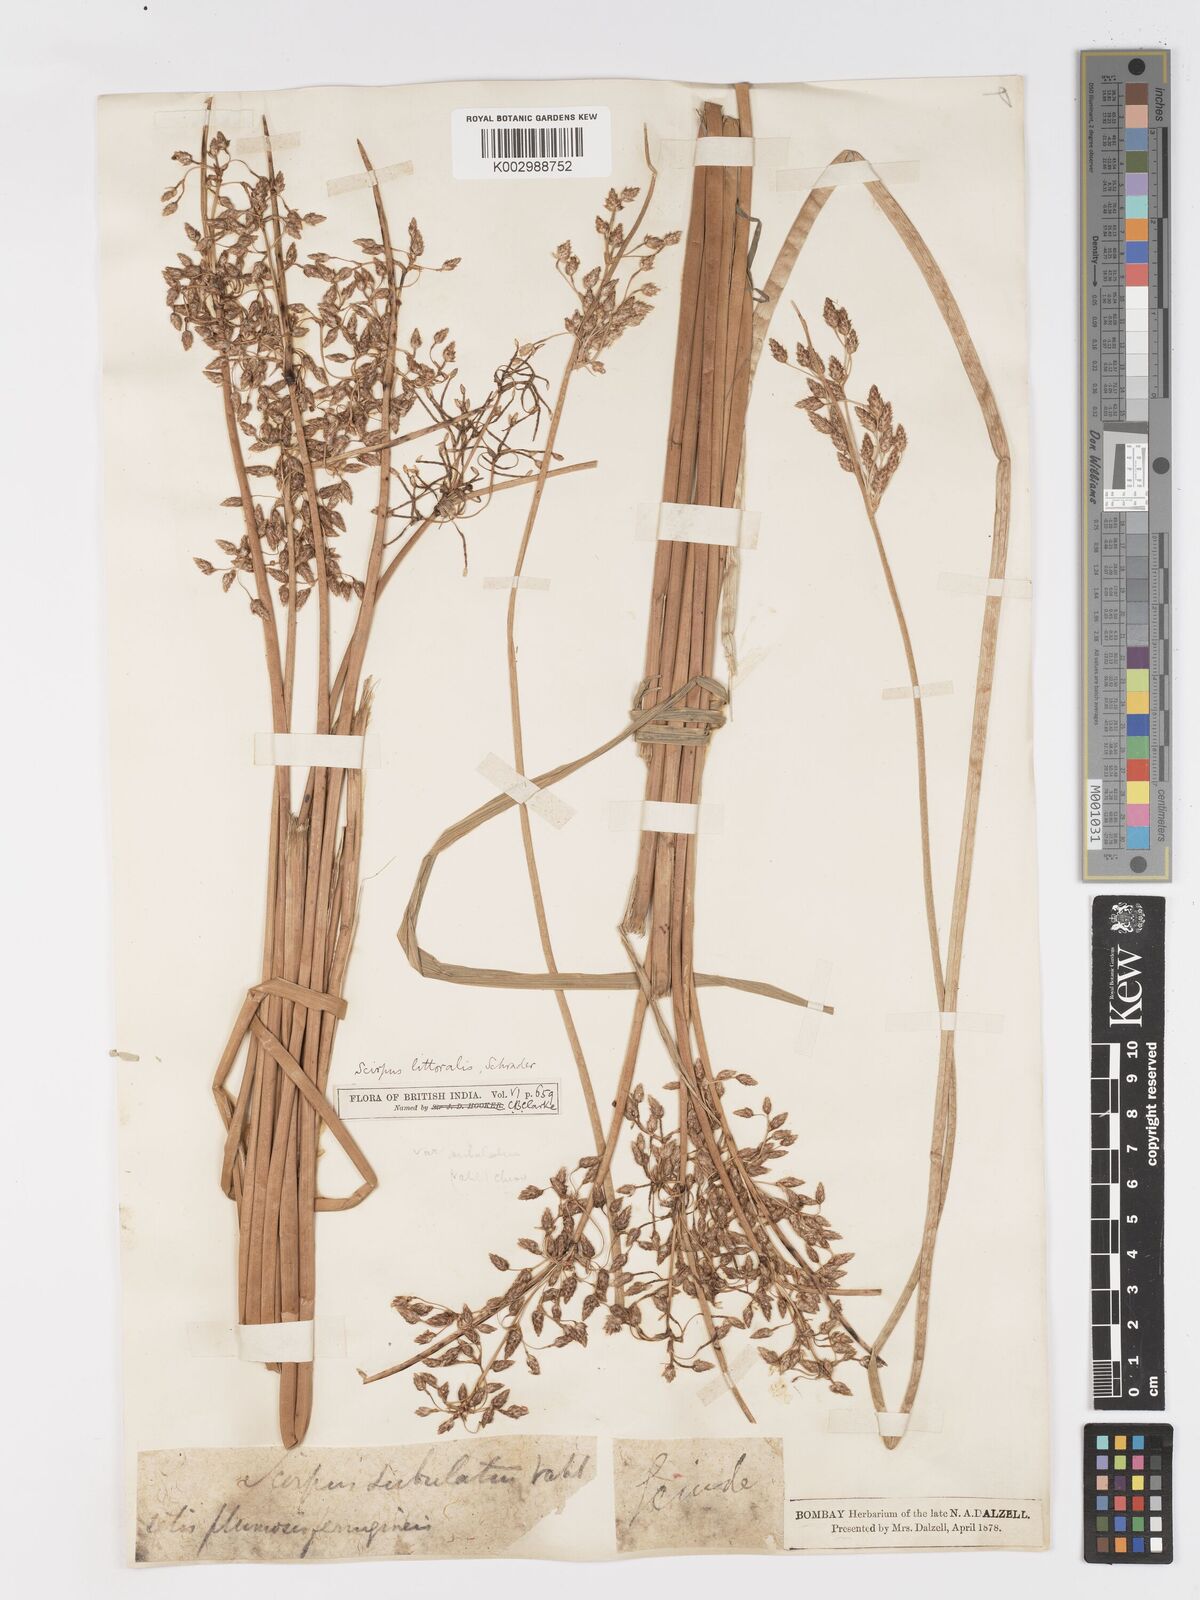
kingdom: Plantae
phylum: Tracheophyta
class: Liliopsida
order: Poales
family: Cyperaceae
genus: Schoenoplectus
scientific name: Schoenoplectus litoralis
